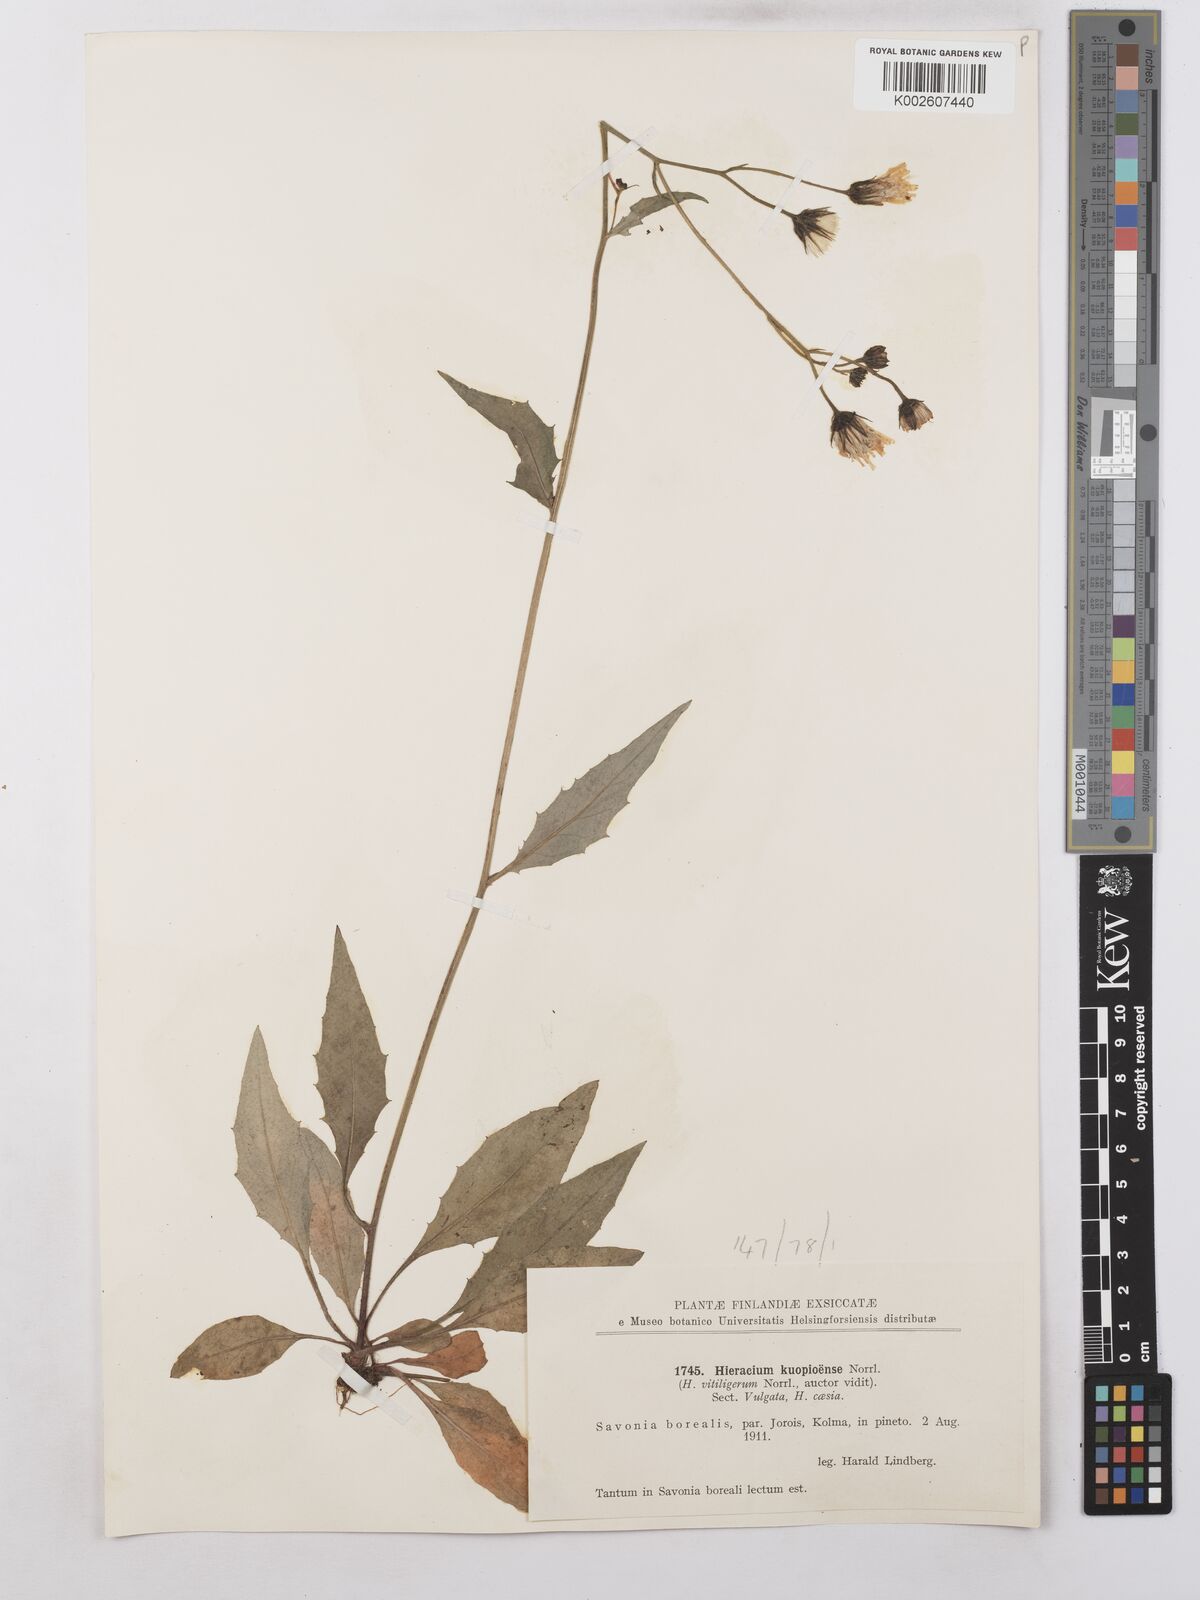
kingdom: Plantae
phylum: Tracheophyta
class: Magnoliopsida
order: Asterales
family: Asteraceae
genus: Hieracium
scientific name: Hieracium caesium
